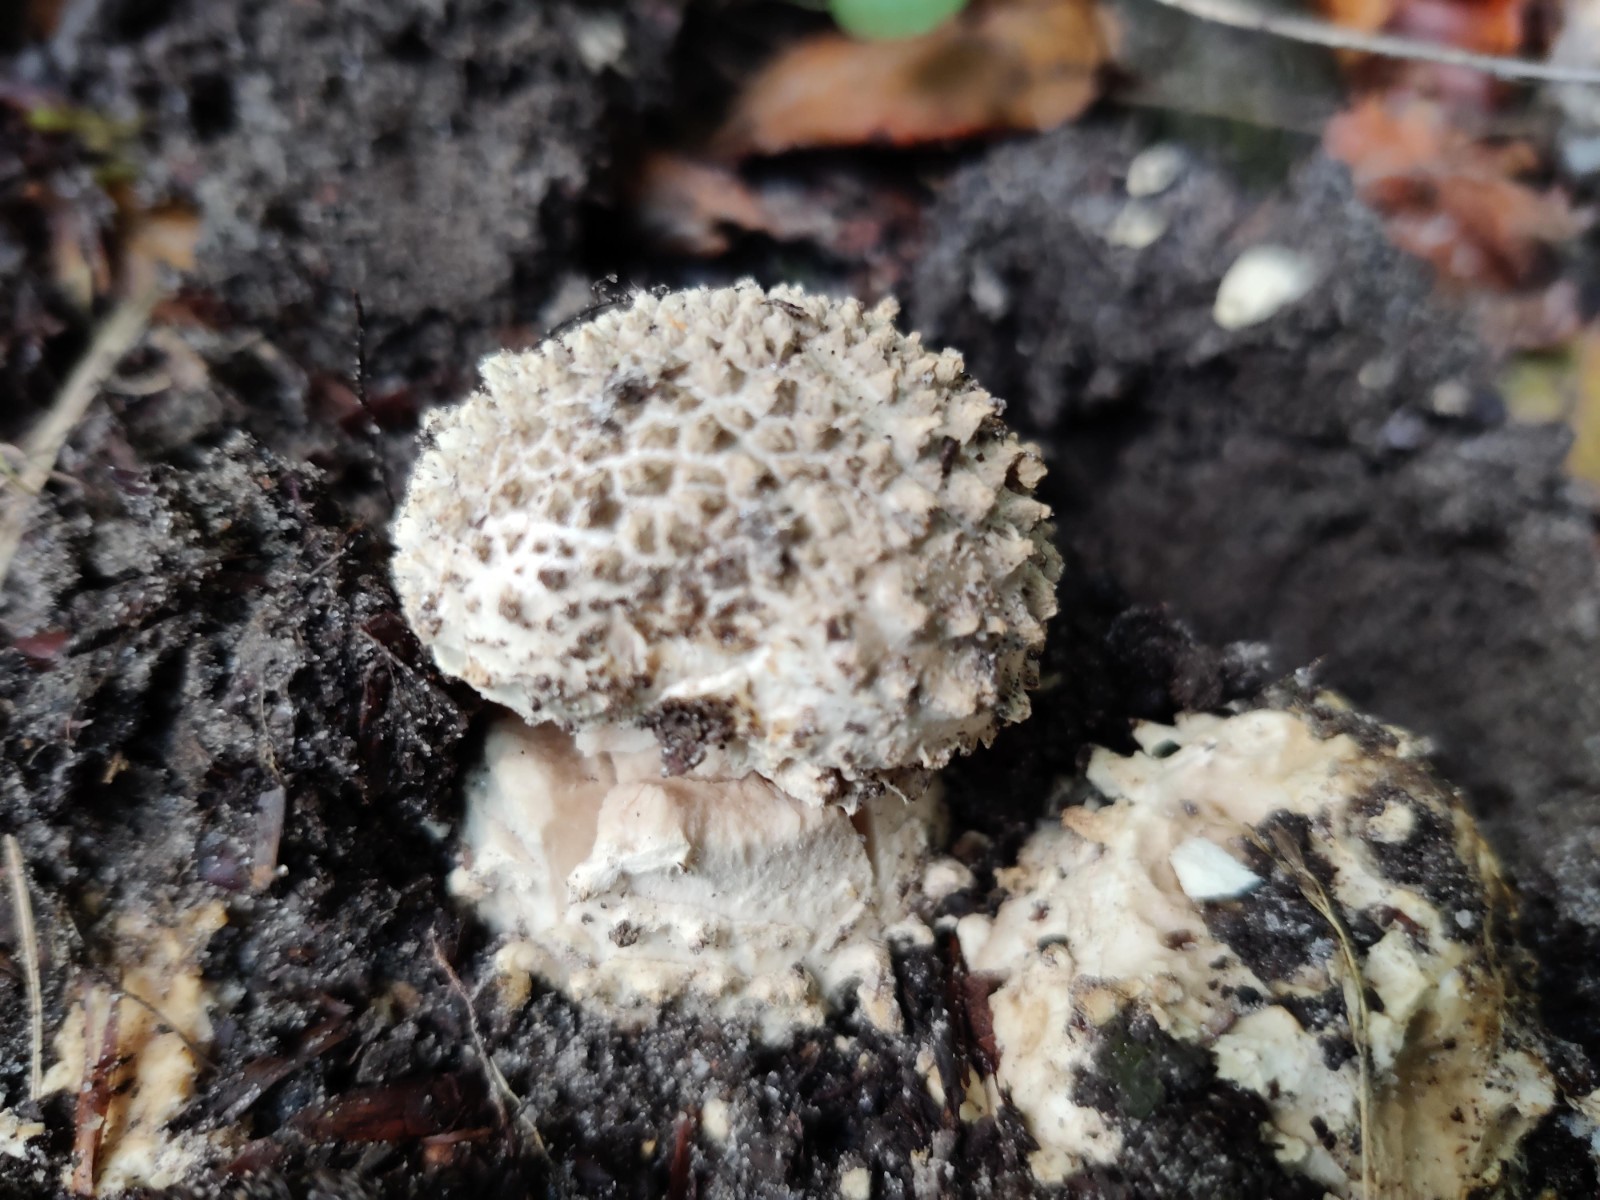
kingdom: Fungi
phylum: Basidiomycota
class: Agaricomycetes
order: Agaricales
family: Amanitaceae
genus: Aspidella
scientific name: Aspidella solitaria
